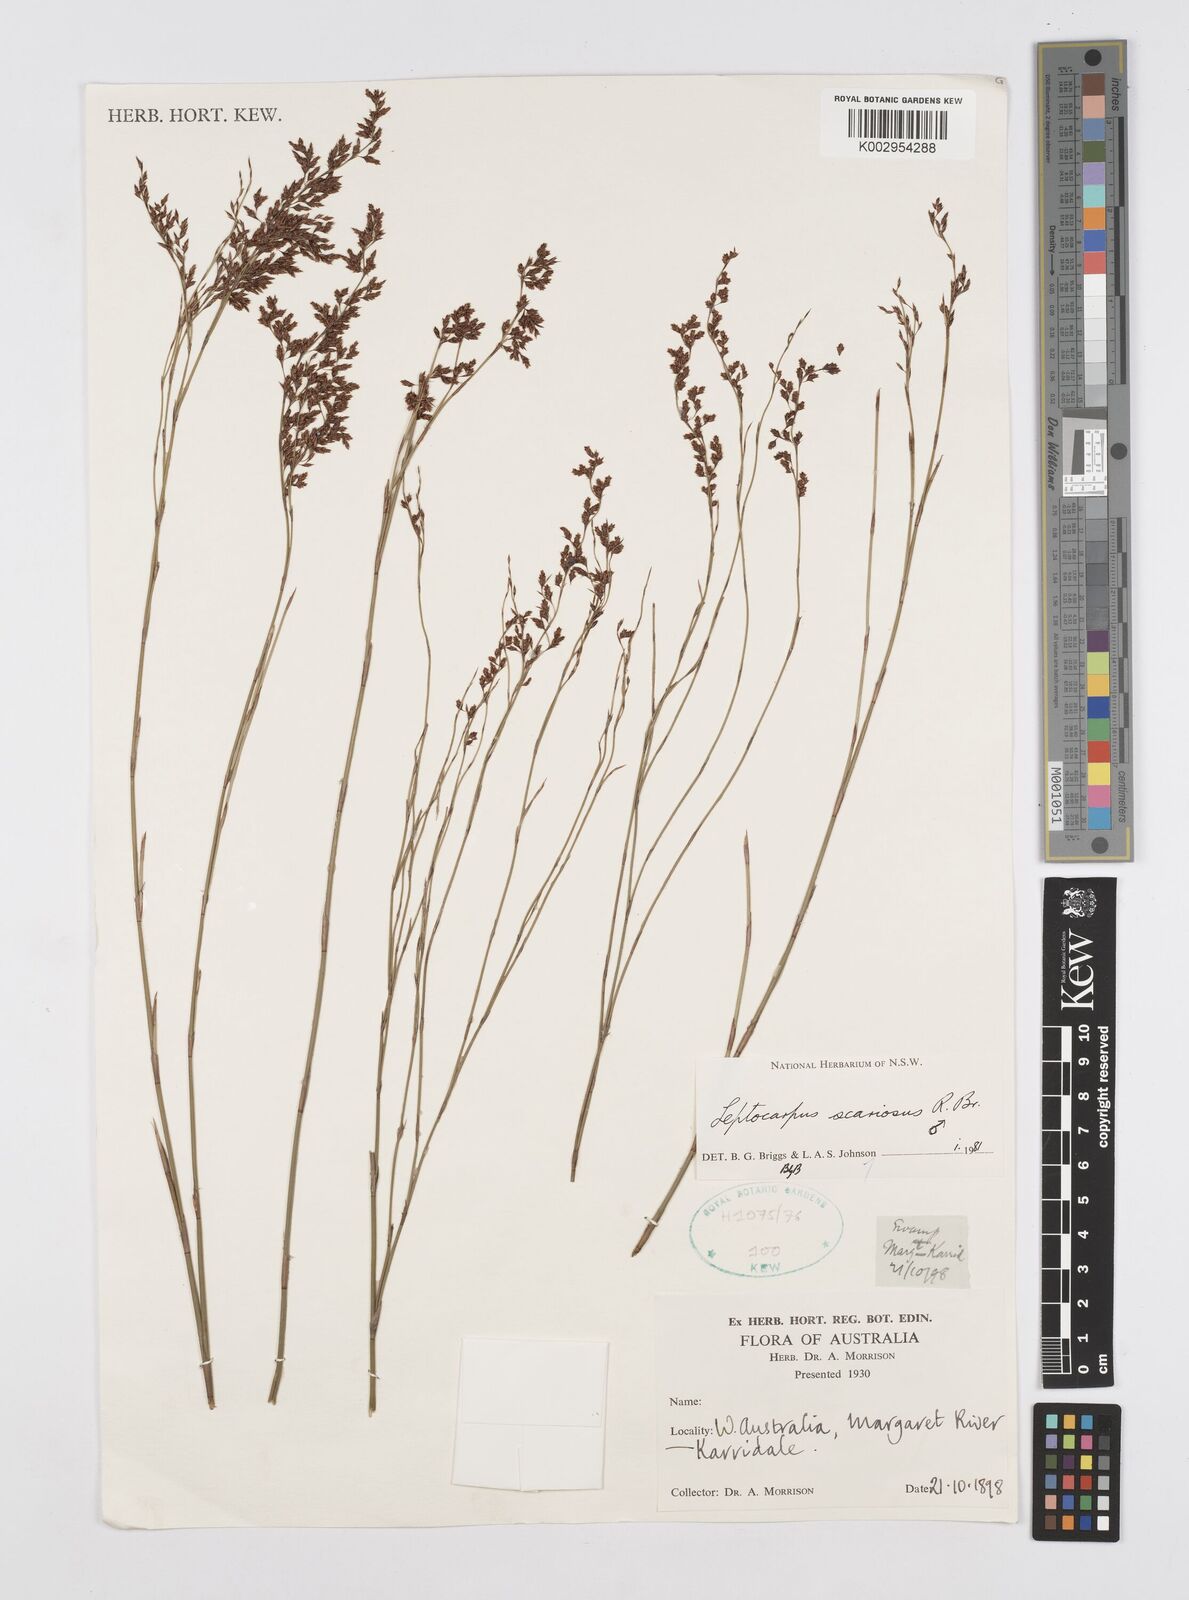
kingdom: Plantae
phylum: Tracheophyta
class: Liliopsida
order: Poales
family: Restionaceae
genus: Leptocarpus
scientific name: Leptocarpus scariosus
